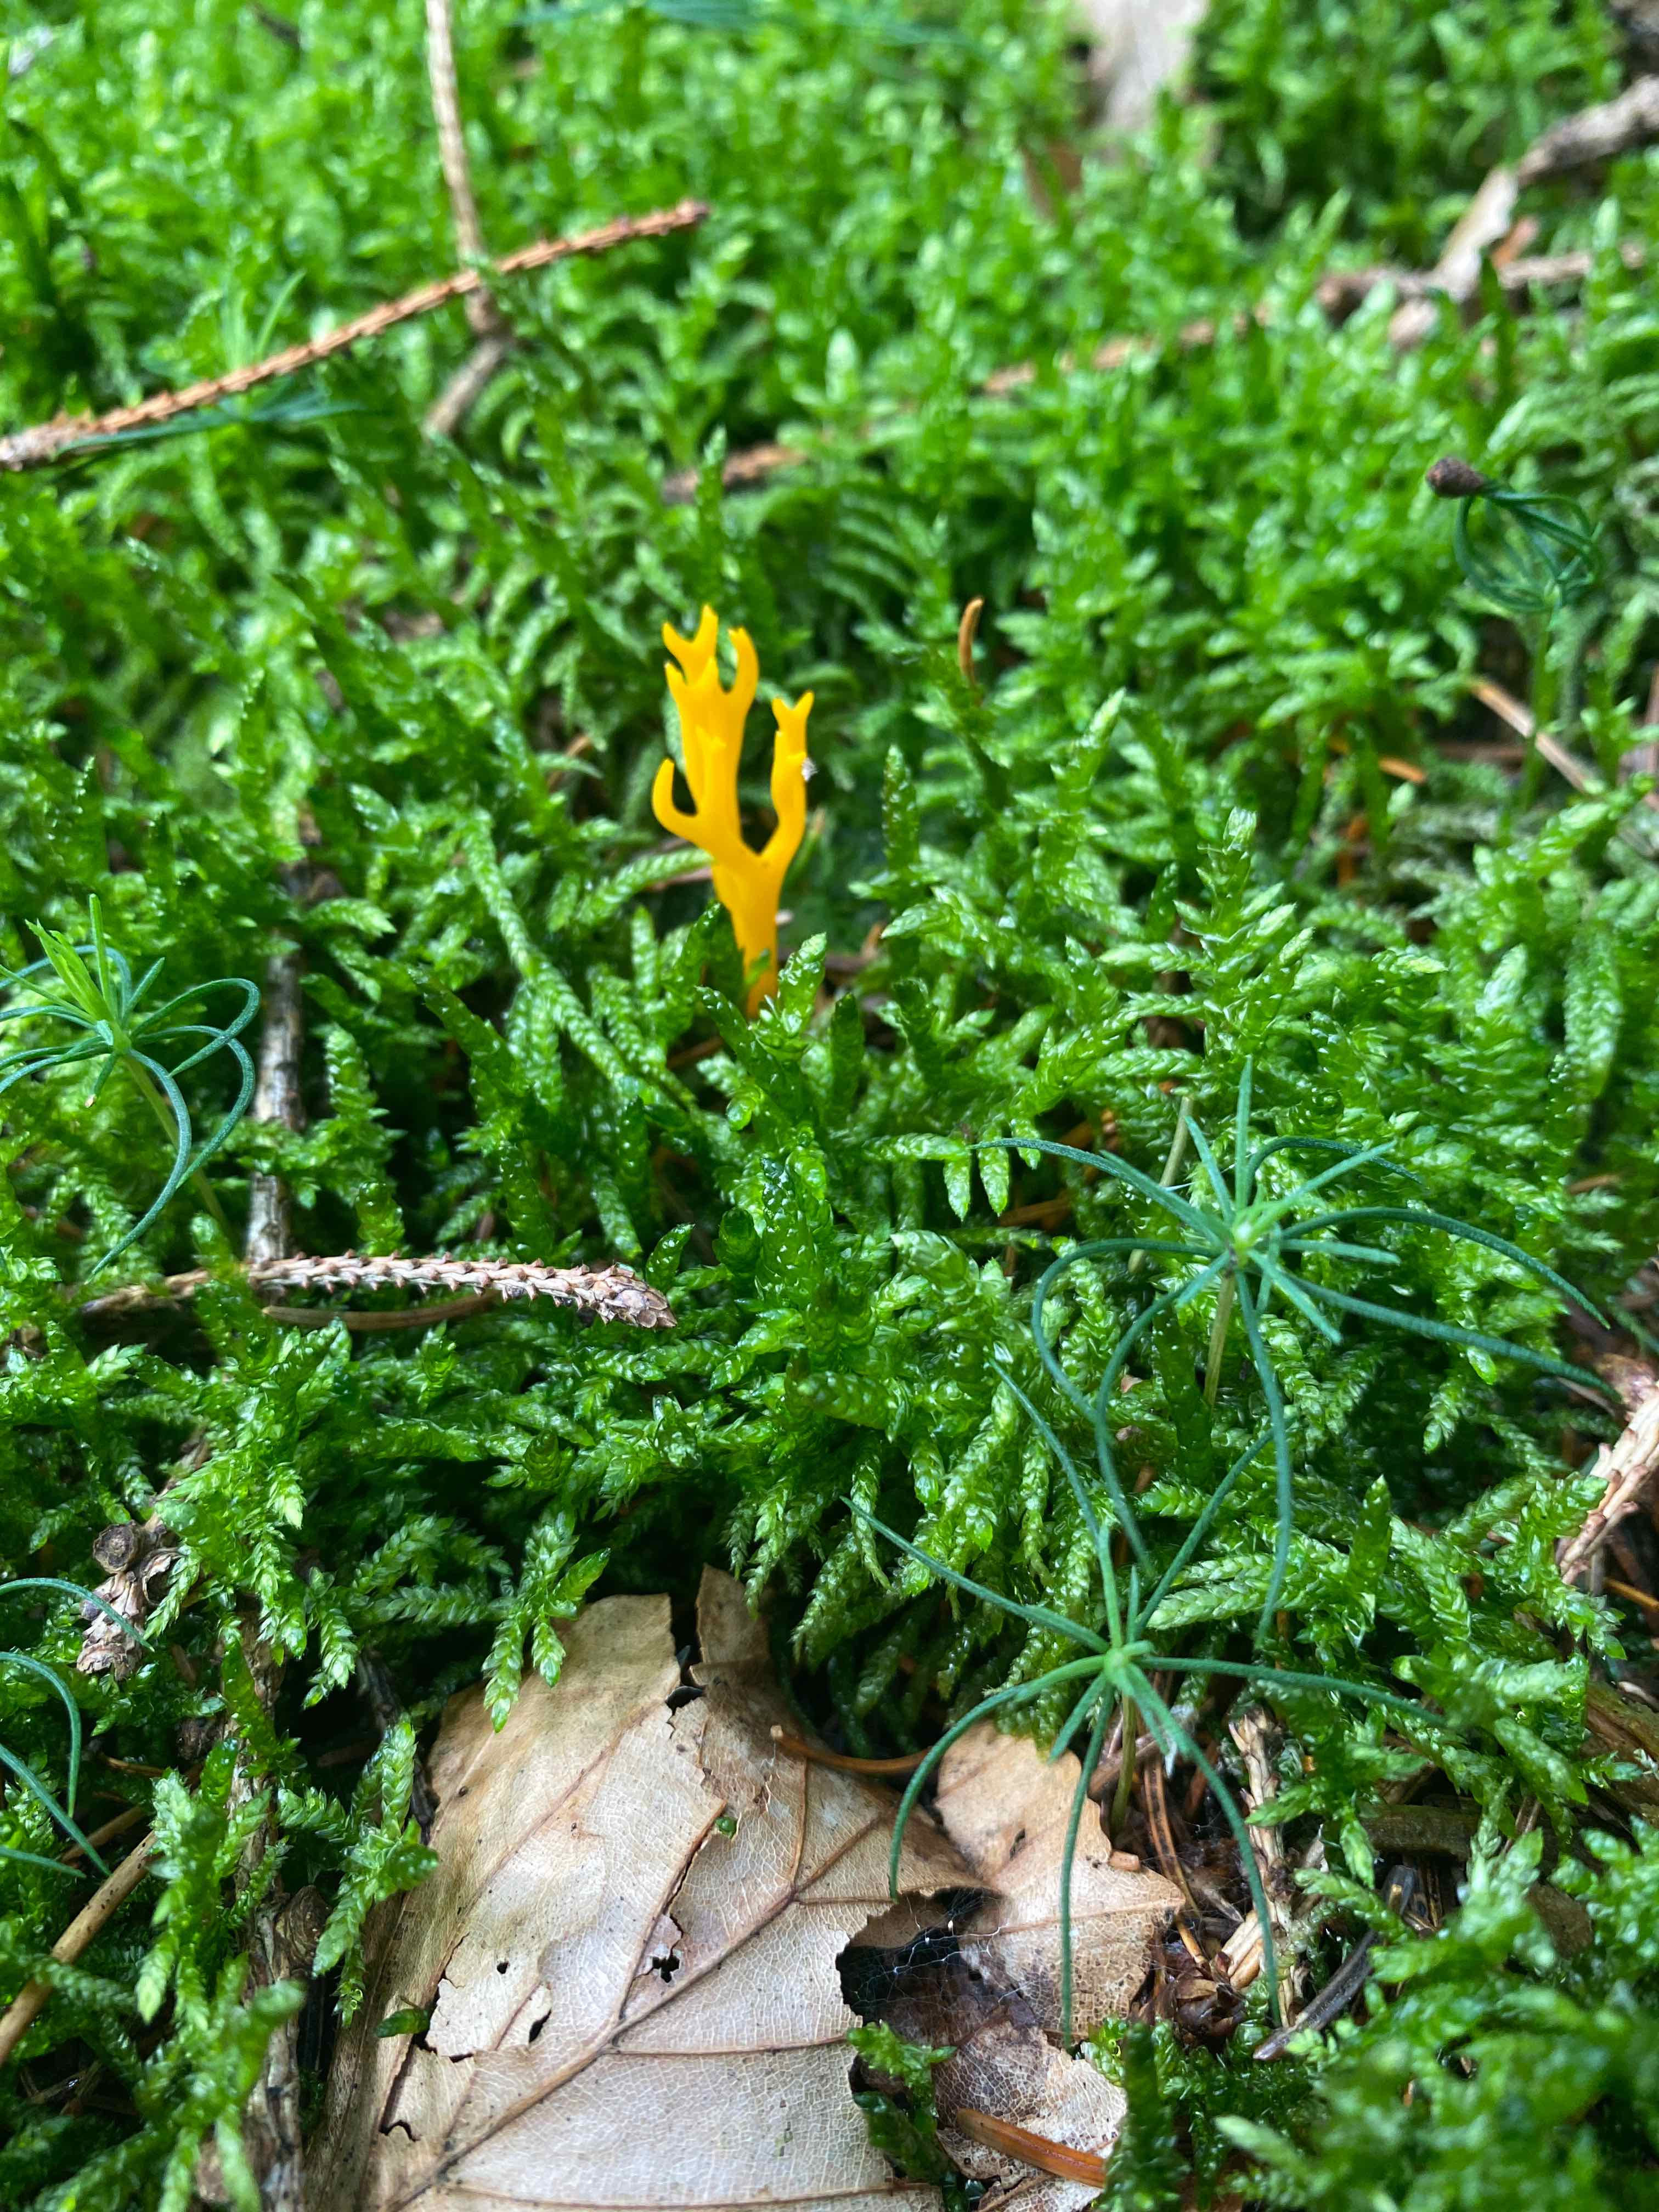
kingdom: Fungi
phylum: Basidiomycota
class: Dacrymycetes
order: Dacrymycetales
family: Dacrymycetaceae
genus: Calocera
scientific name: Calocera viscosa
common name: almindelig guldgaffel
